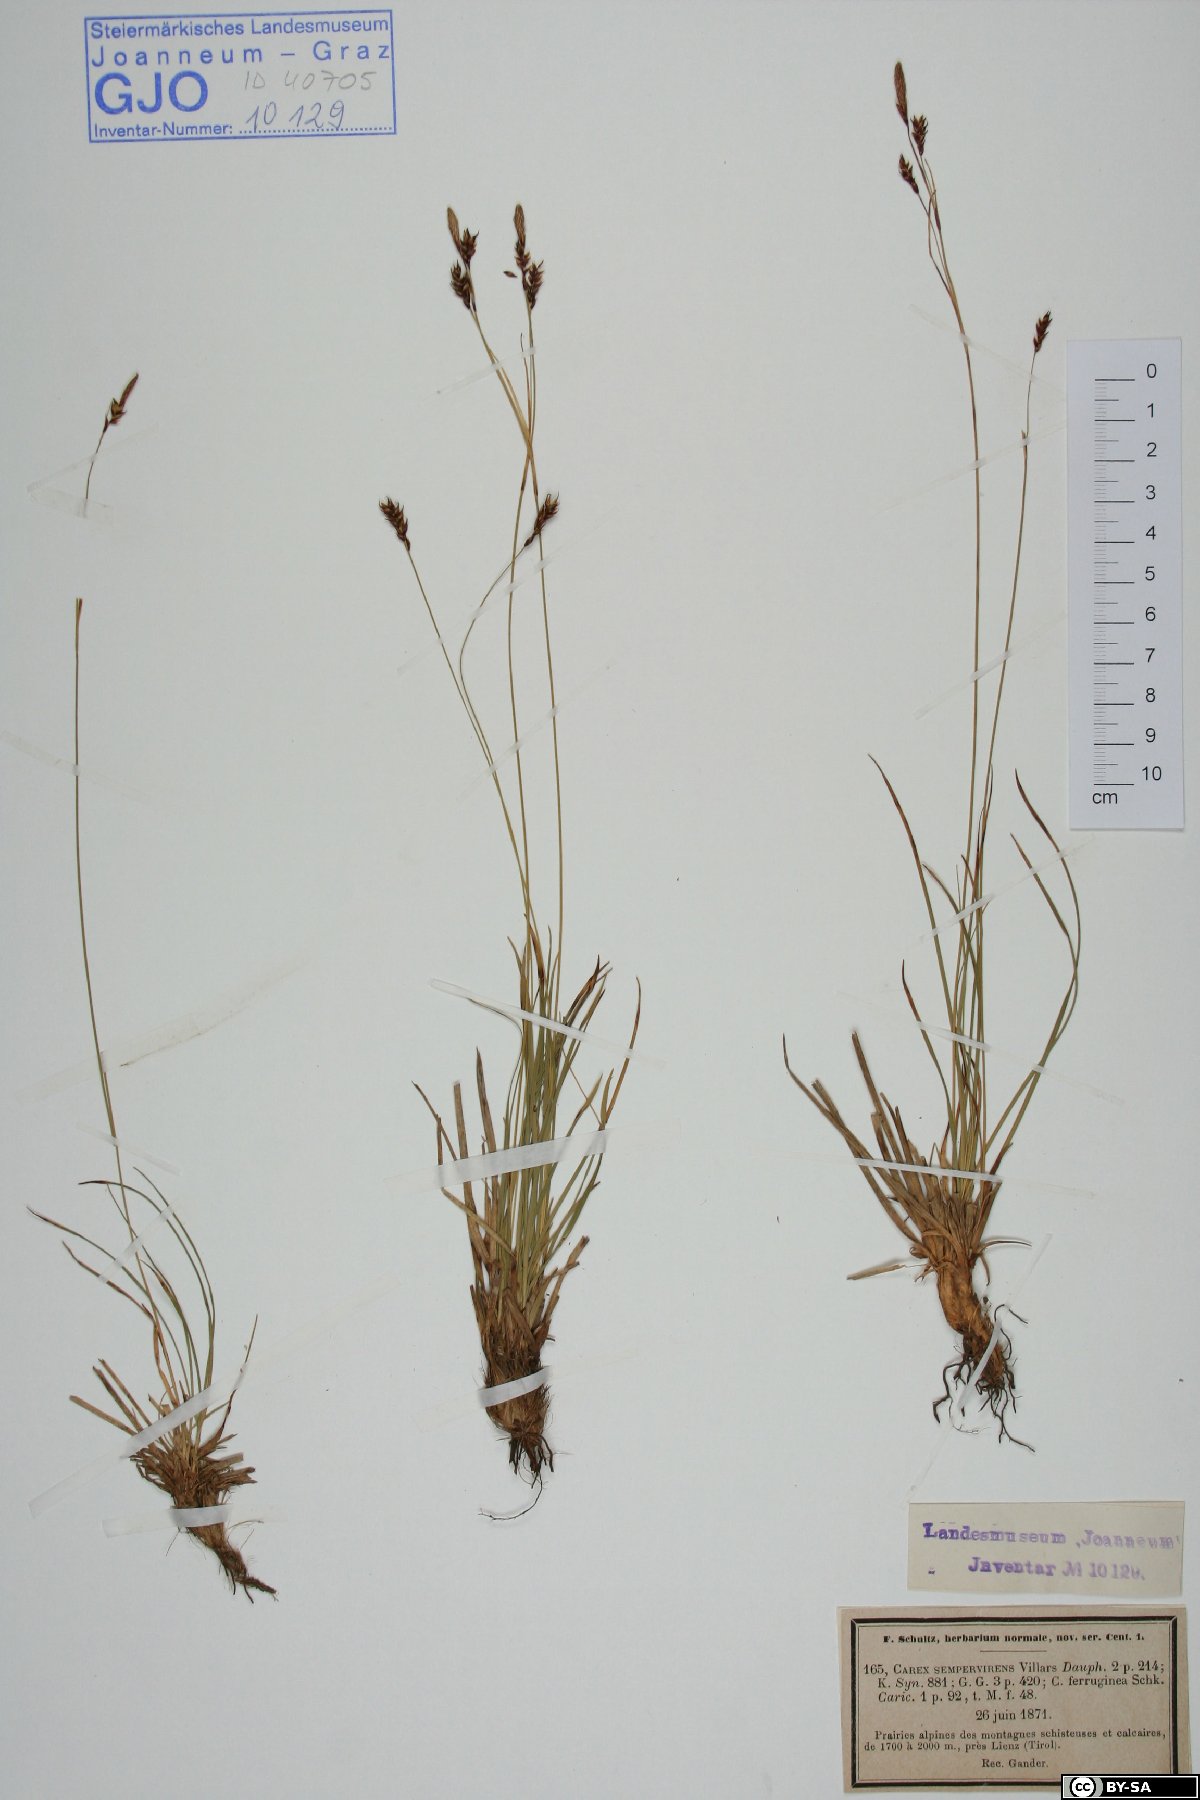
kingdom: Plantae
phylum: Tracheophyta
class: Liliopsida
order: Poales
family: Cyperaceae
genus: Carex
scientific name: Carex sempervirens
